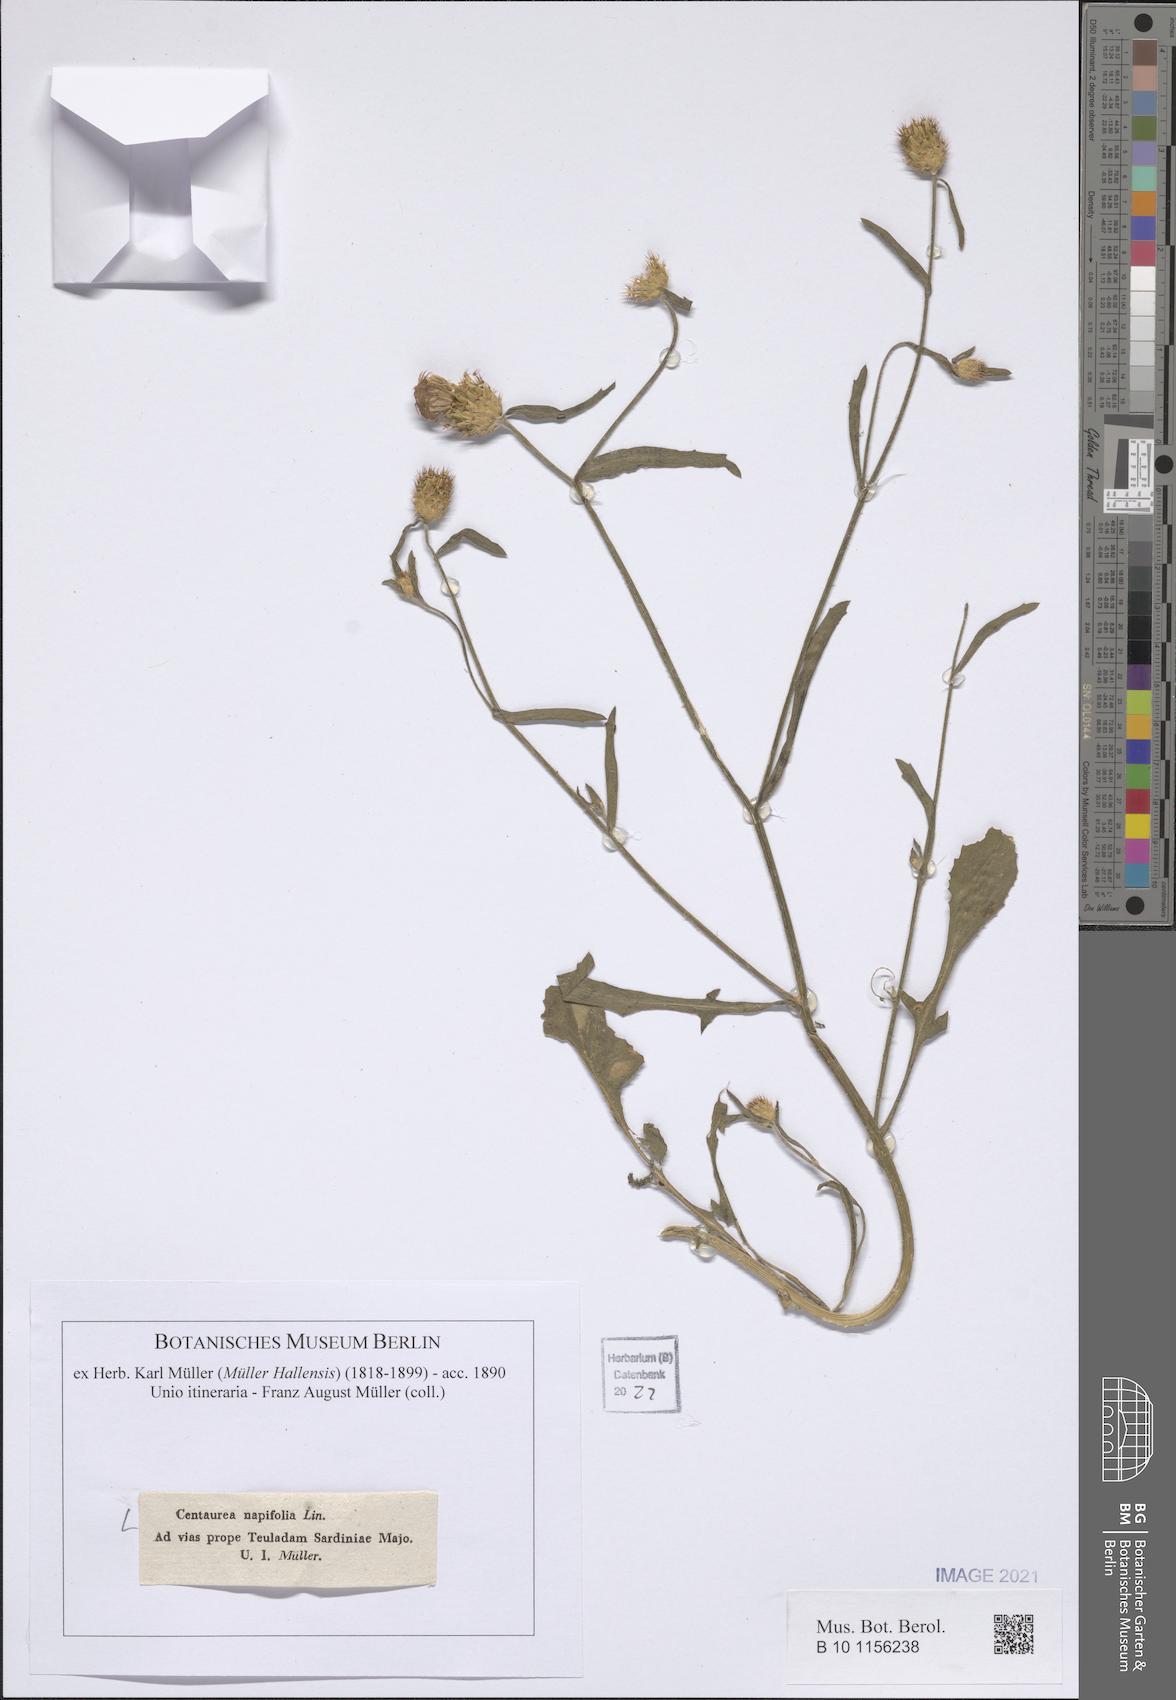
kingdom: Plantae
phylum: Tracheophyta
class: Magnoliopsida
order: Asterales
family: Asteraceae
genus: Centaurea
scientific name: Centaurea napifolia
